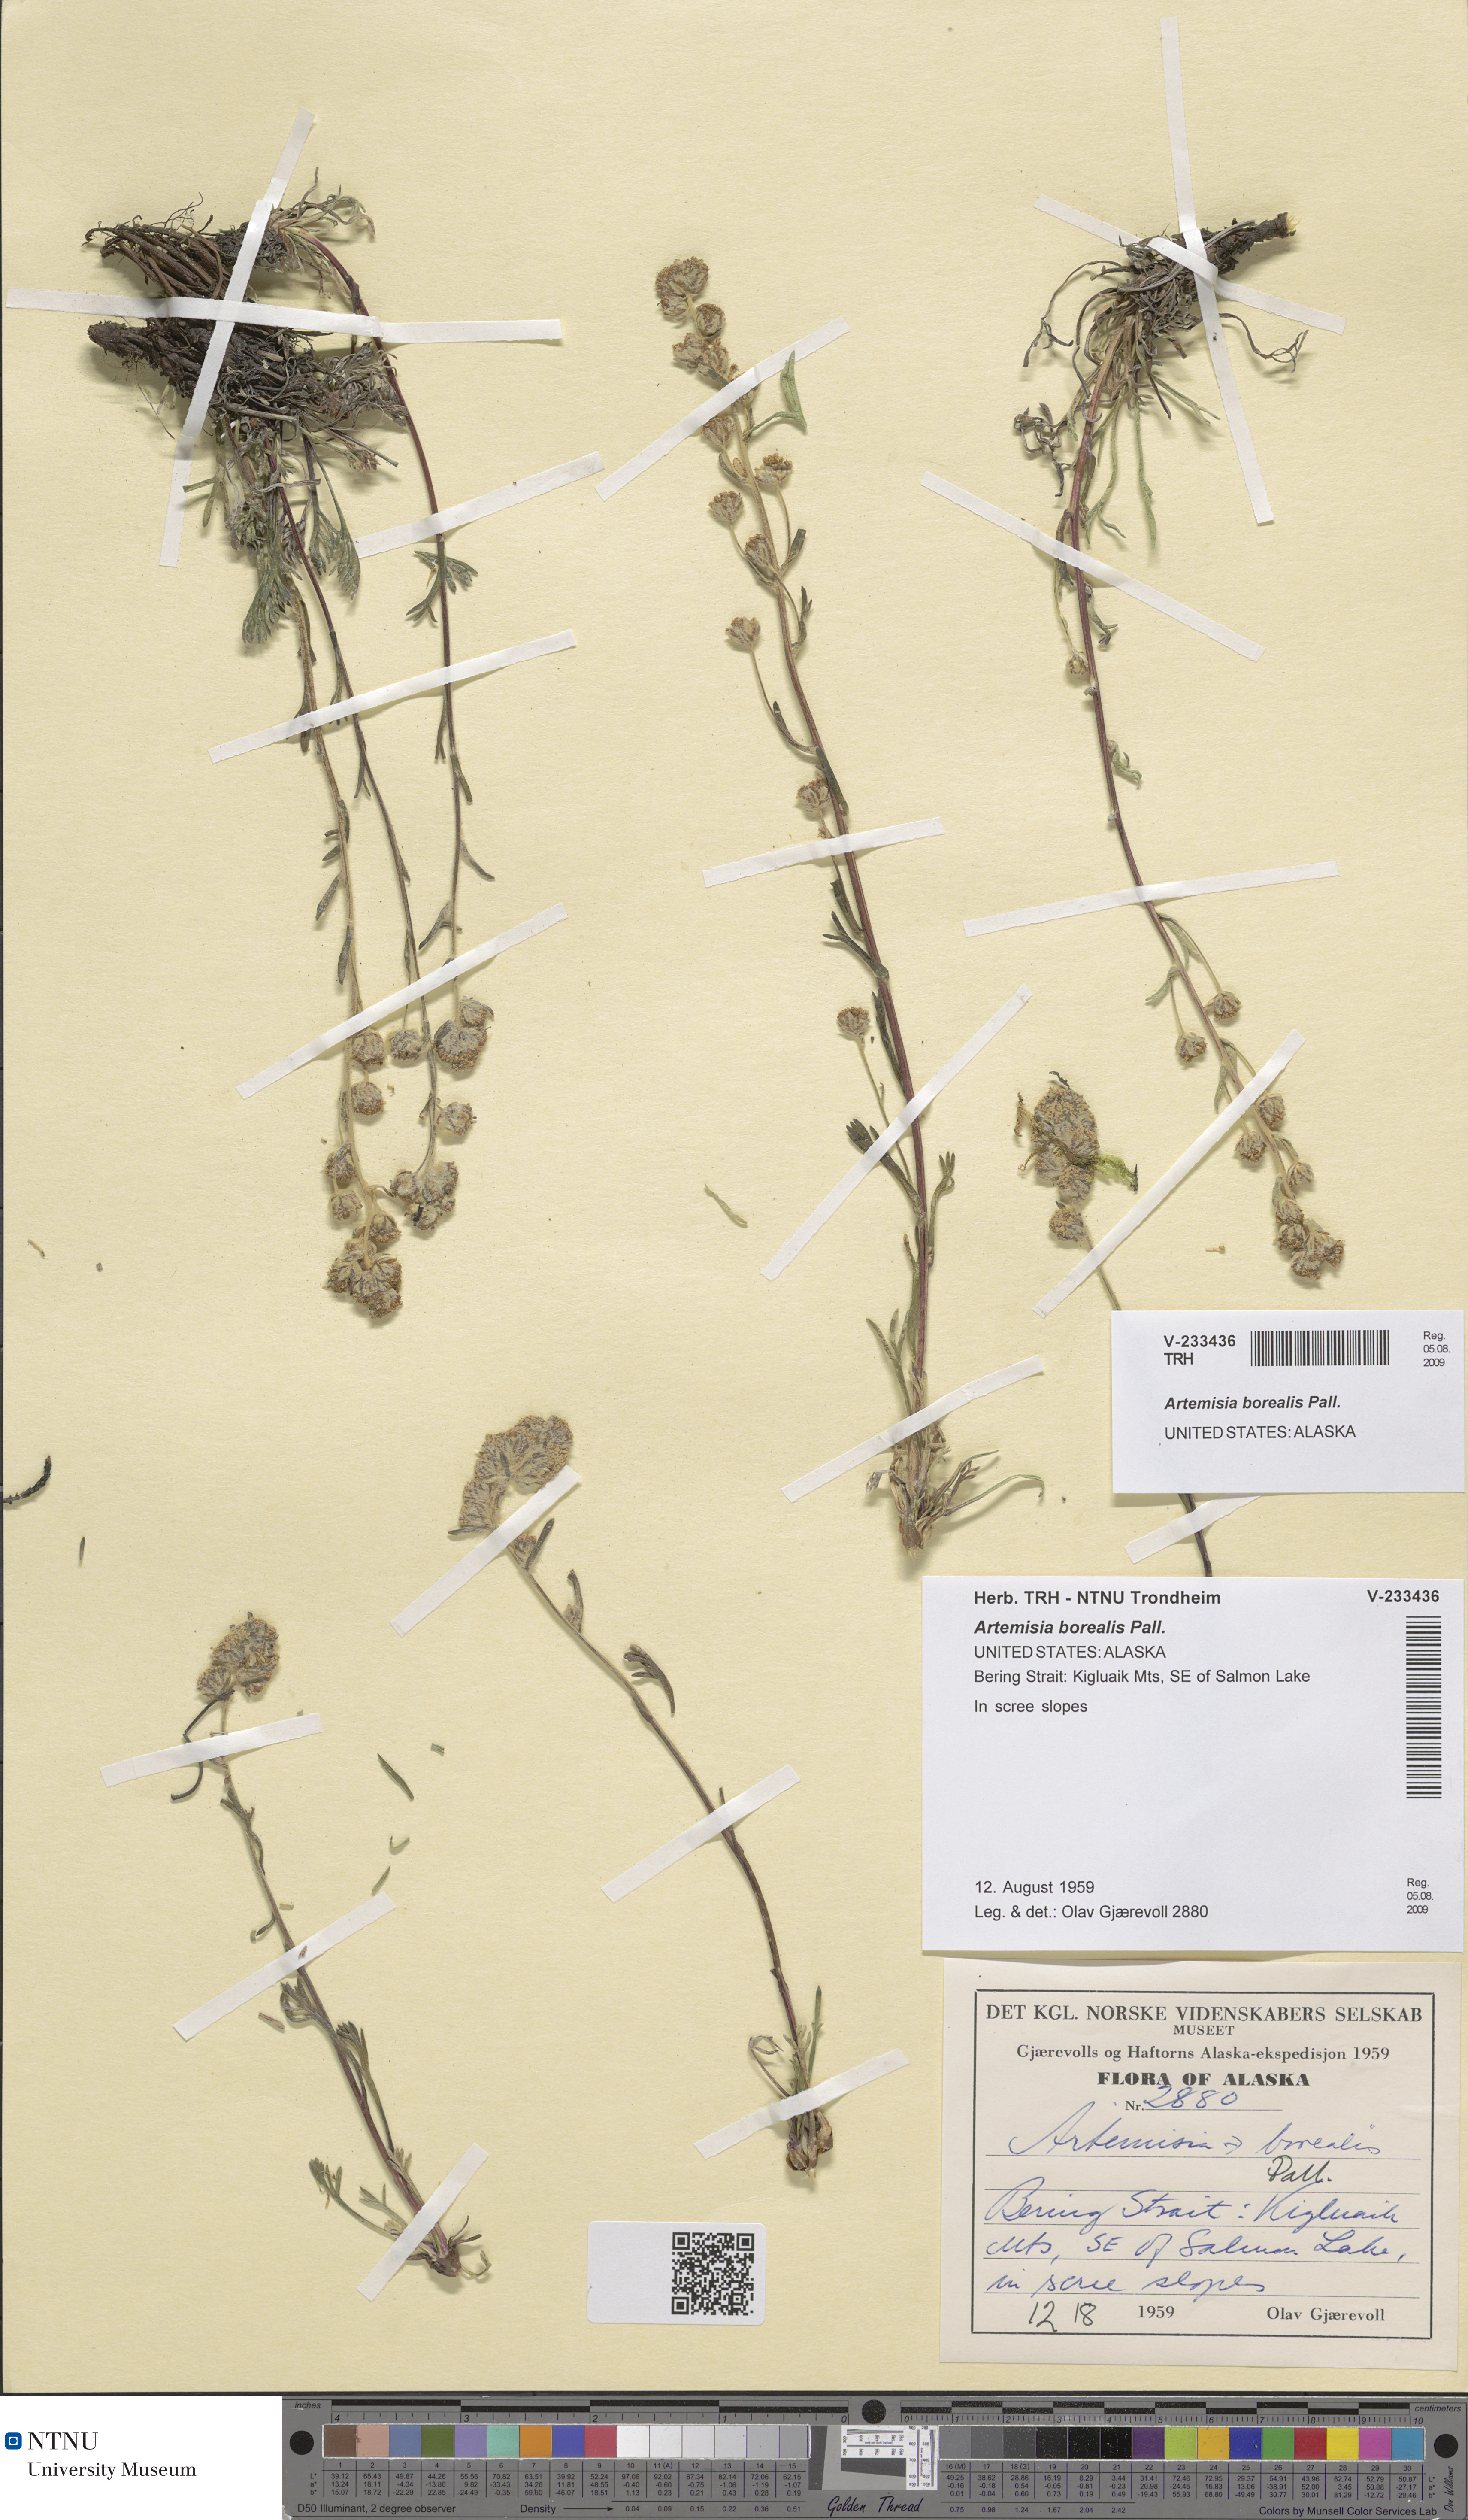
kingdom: Plantae
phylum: Tracheophyta
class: Magnoliopsida
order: Asterales
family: Asteraceae
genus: Artemisia
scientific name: Artemisia borealis
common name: Boreal sage
